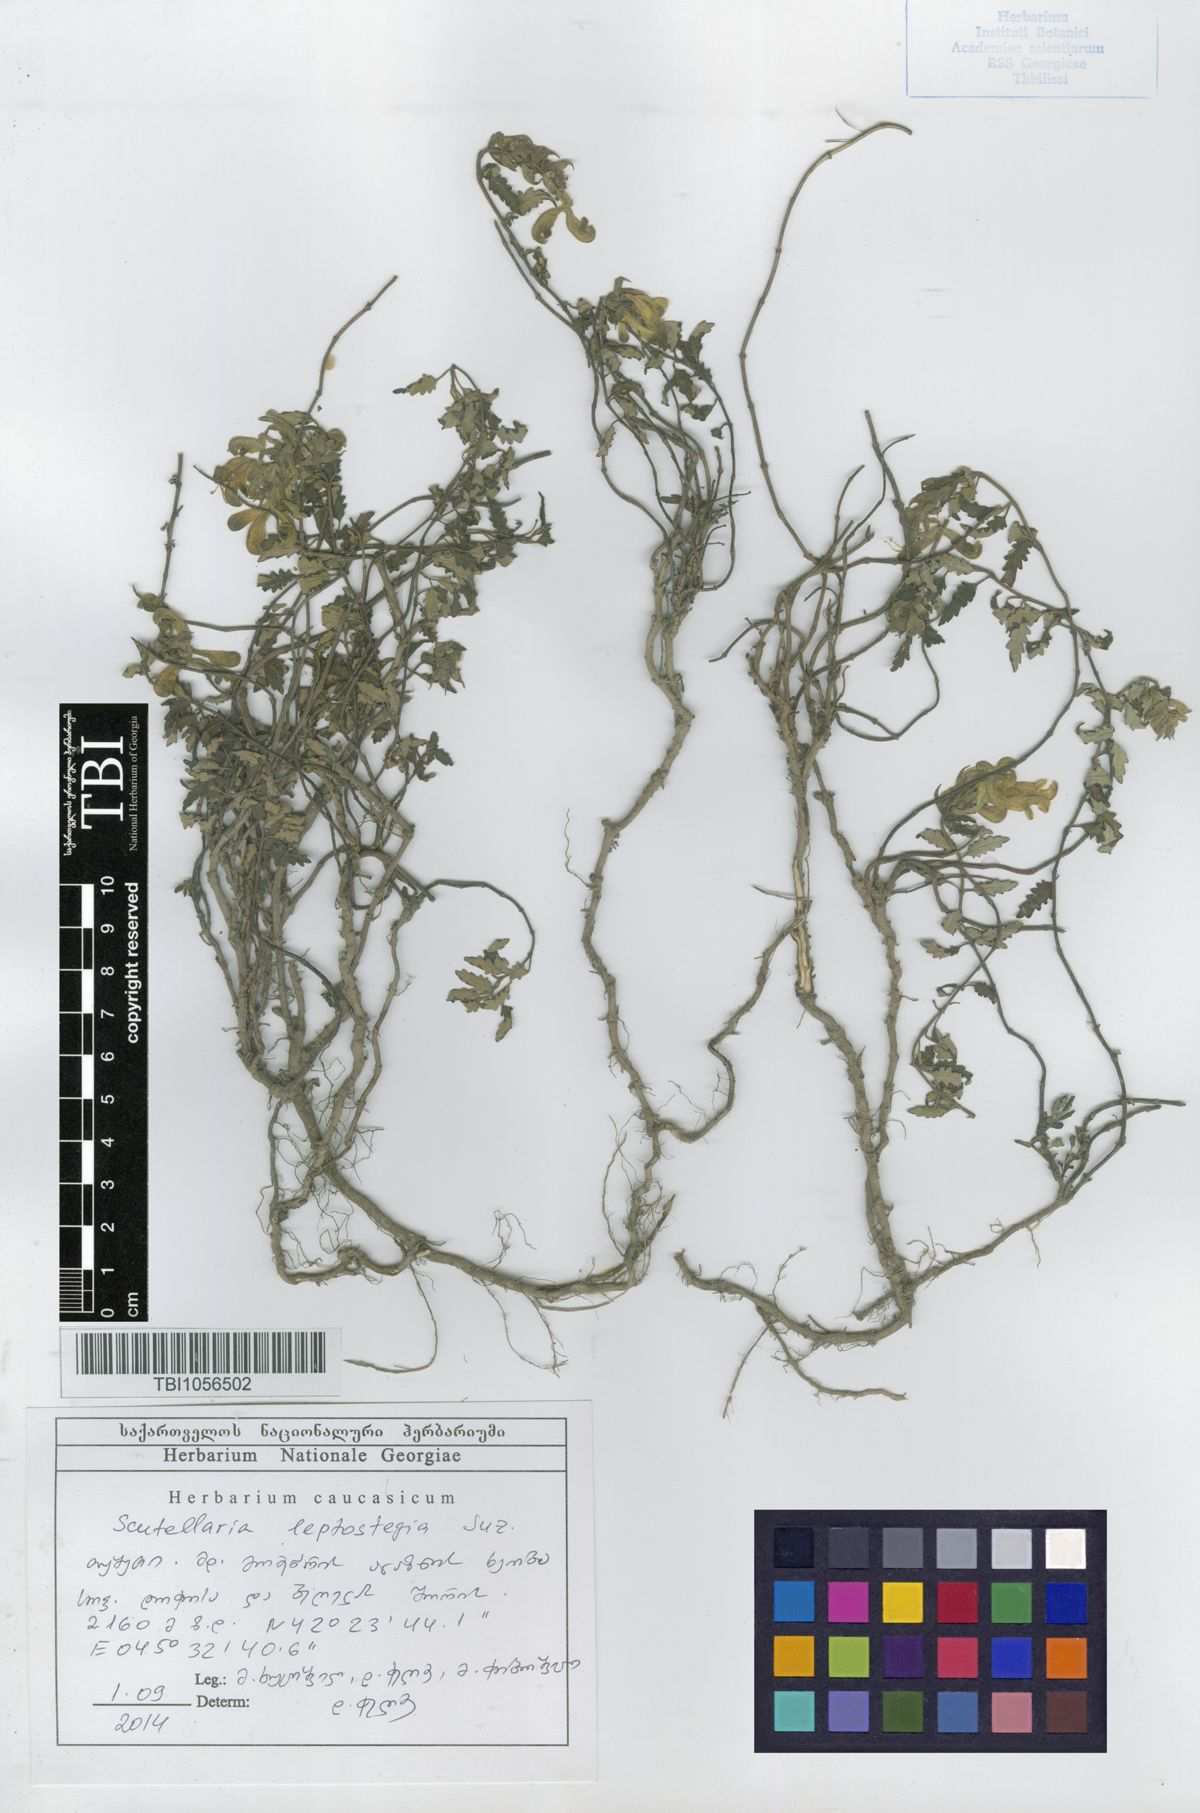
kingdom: Plantae
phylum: Tracheophyta
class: Magnoliopsida
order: Lamiales
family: Lamiaceae
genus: Scutellaria
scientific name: Scutellaria leptostegia
